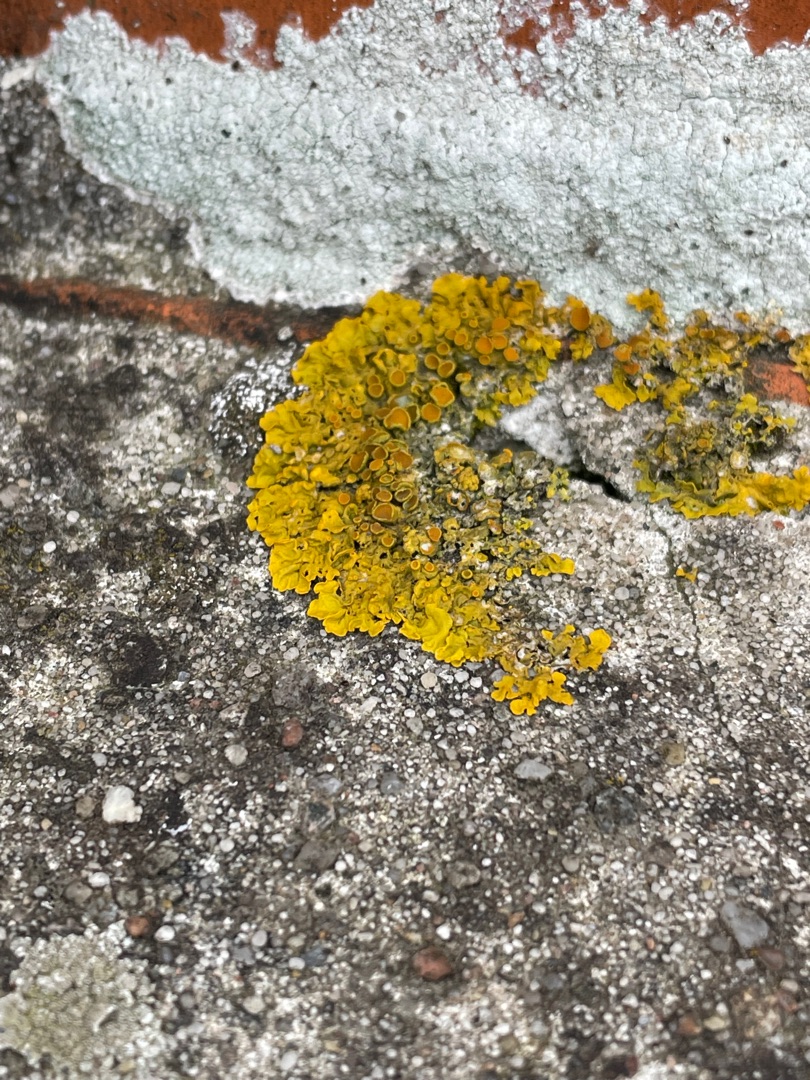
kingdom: Fungi
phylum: Ascomycota
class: Lecanoromycetes
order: Teloschistales
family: Teloschistaceae
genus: Xanthoria
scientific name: Xanthoria parietina
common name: Almindelig væggelav
